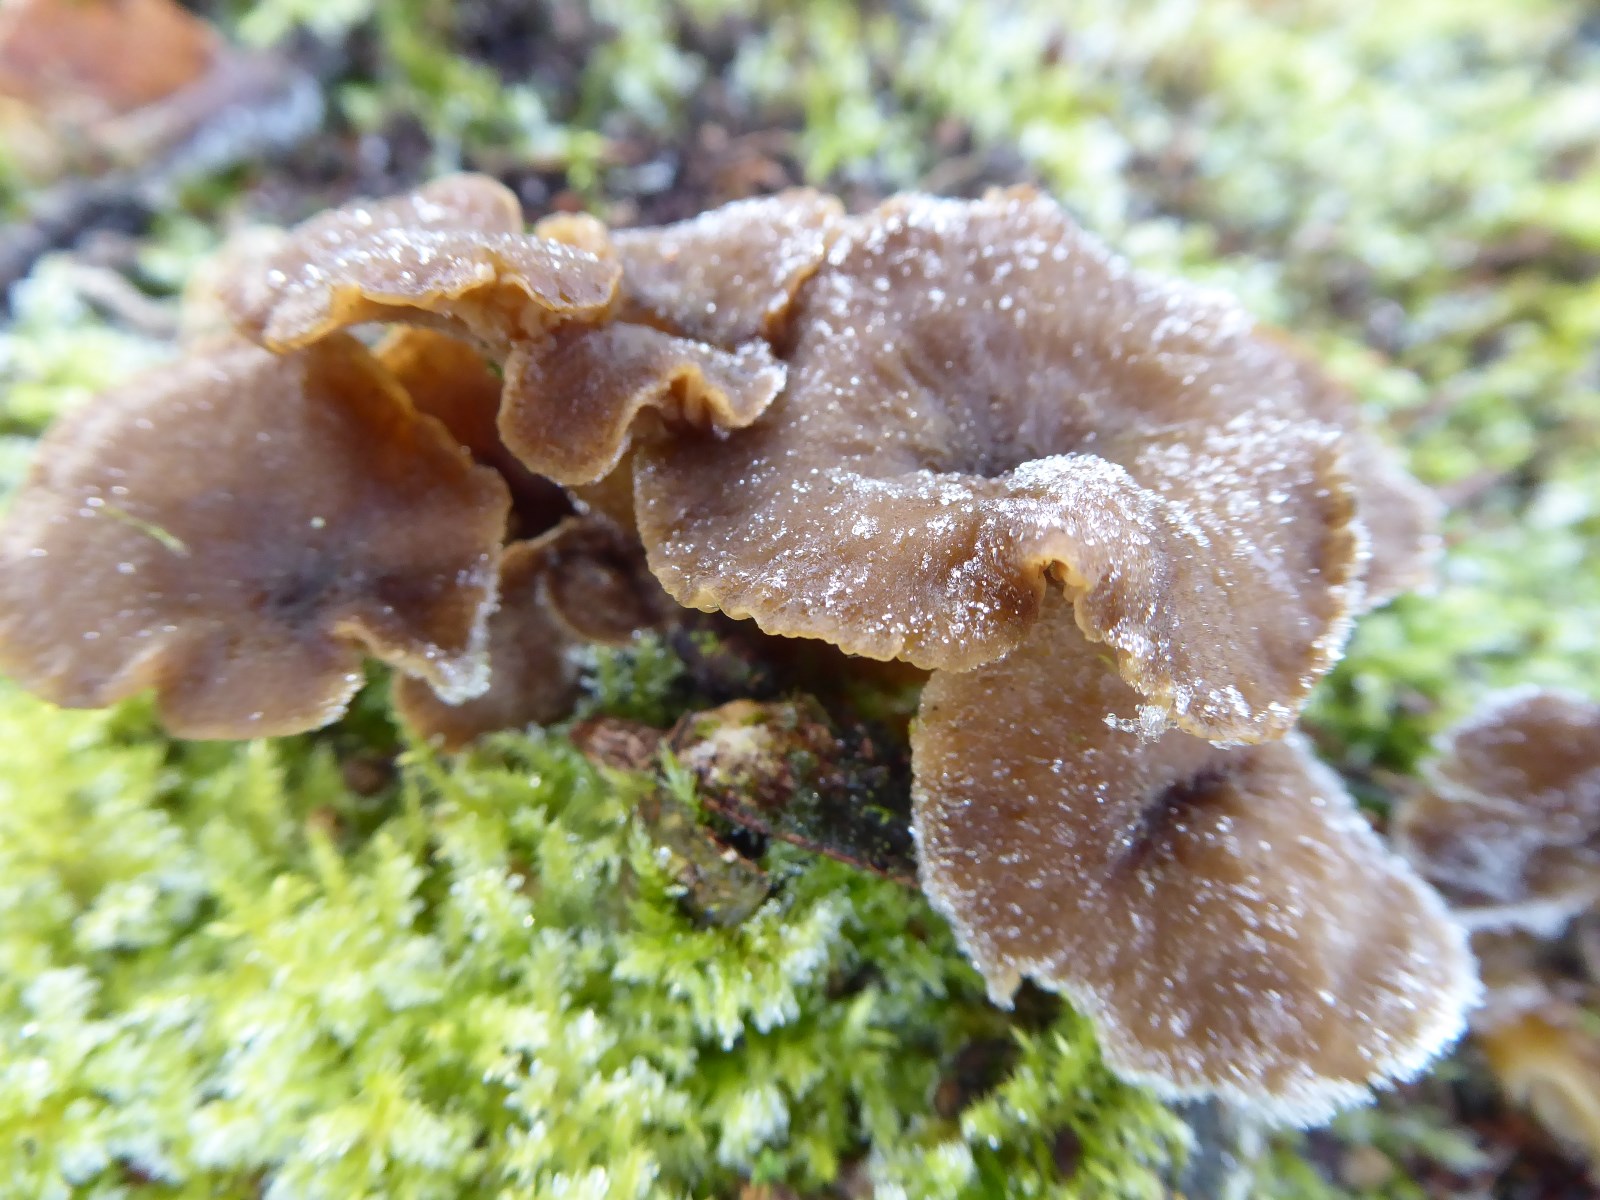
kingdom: Fungi
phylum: Basidiomycota
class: Agaricomycetes
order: Cantharellales
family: Hydnaceae
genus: Craterellus
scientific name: Craterellus tubaeformis
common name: tragt-kantarel
